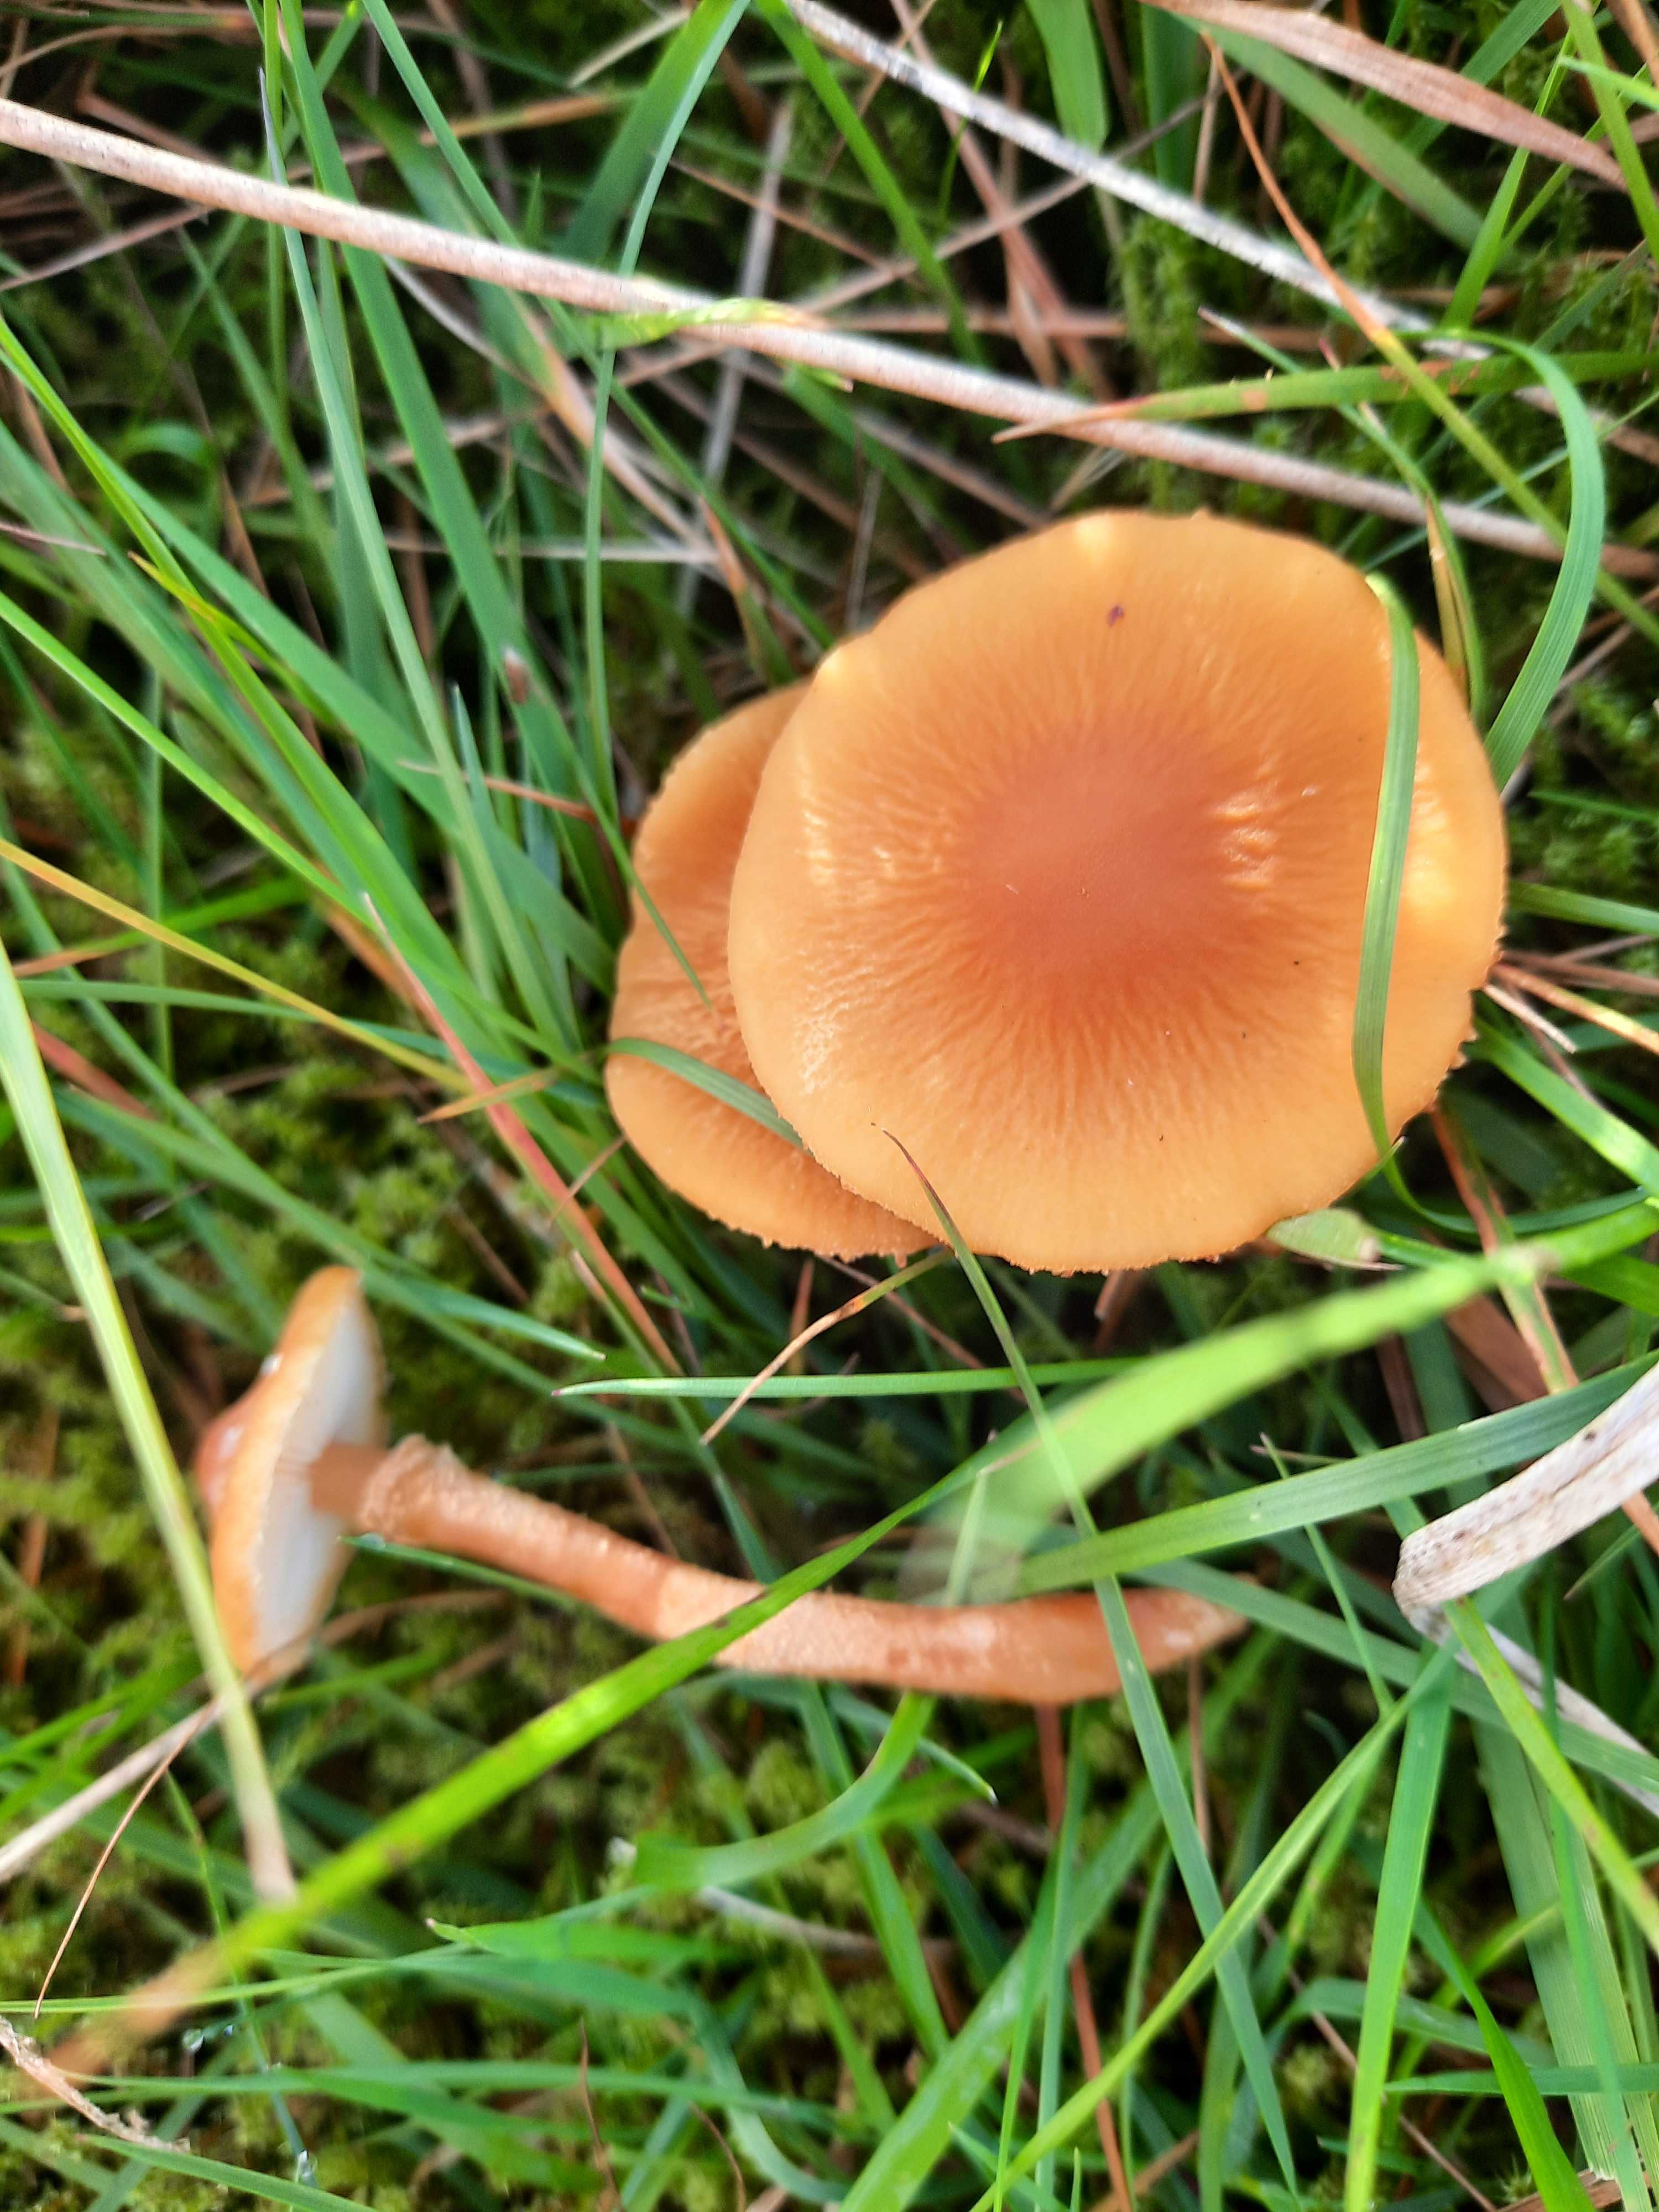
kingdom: Fungi
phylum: Basidiomycota
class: Agaricomycetes
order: Agaricales
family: Tricholomataceae
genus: Cystoderma
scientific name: Cystoderma amianthinum
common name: okkergul grynhat
